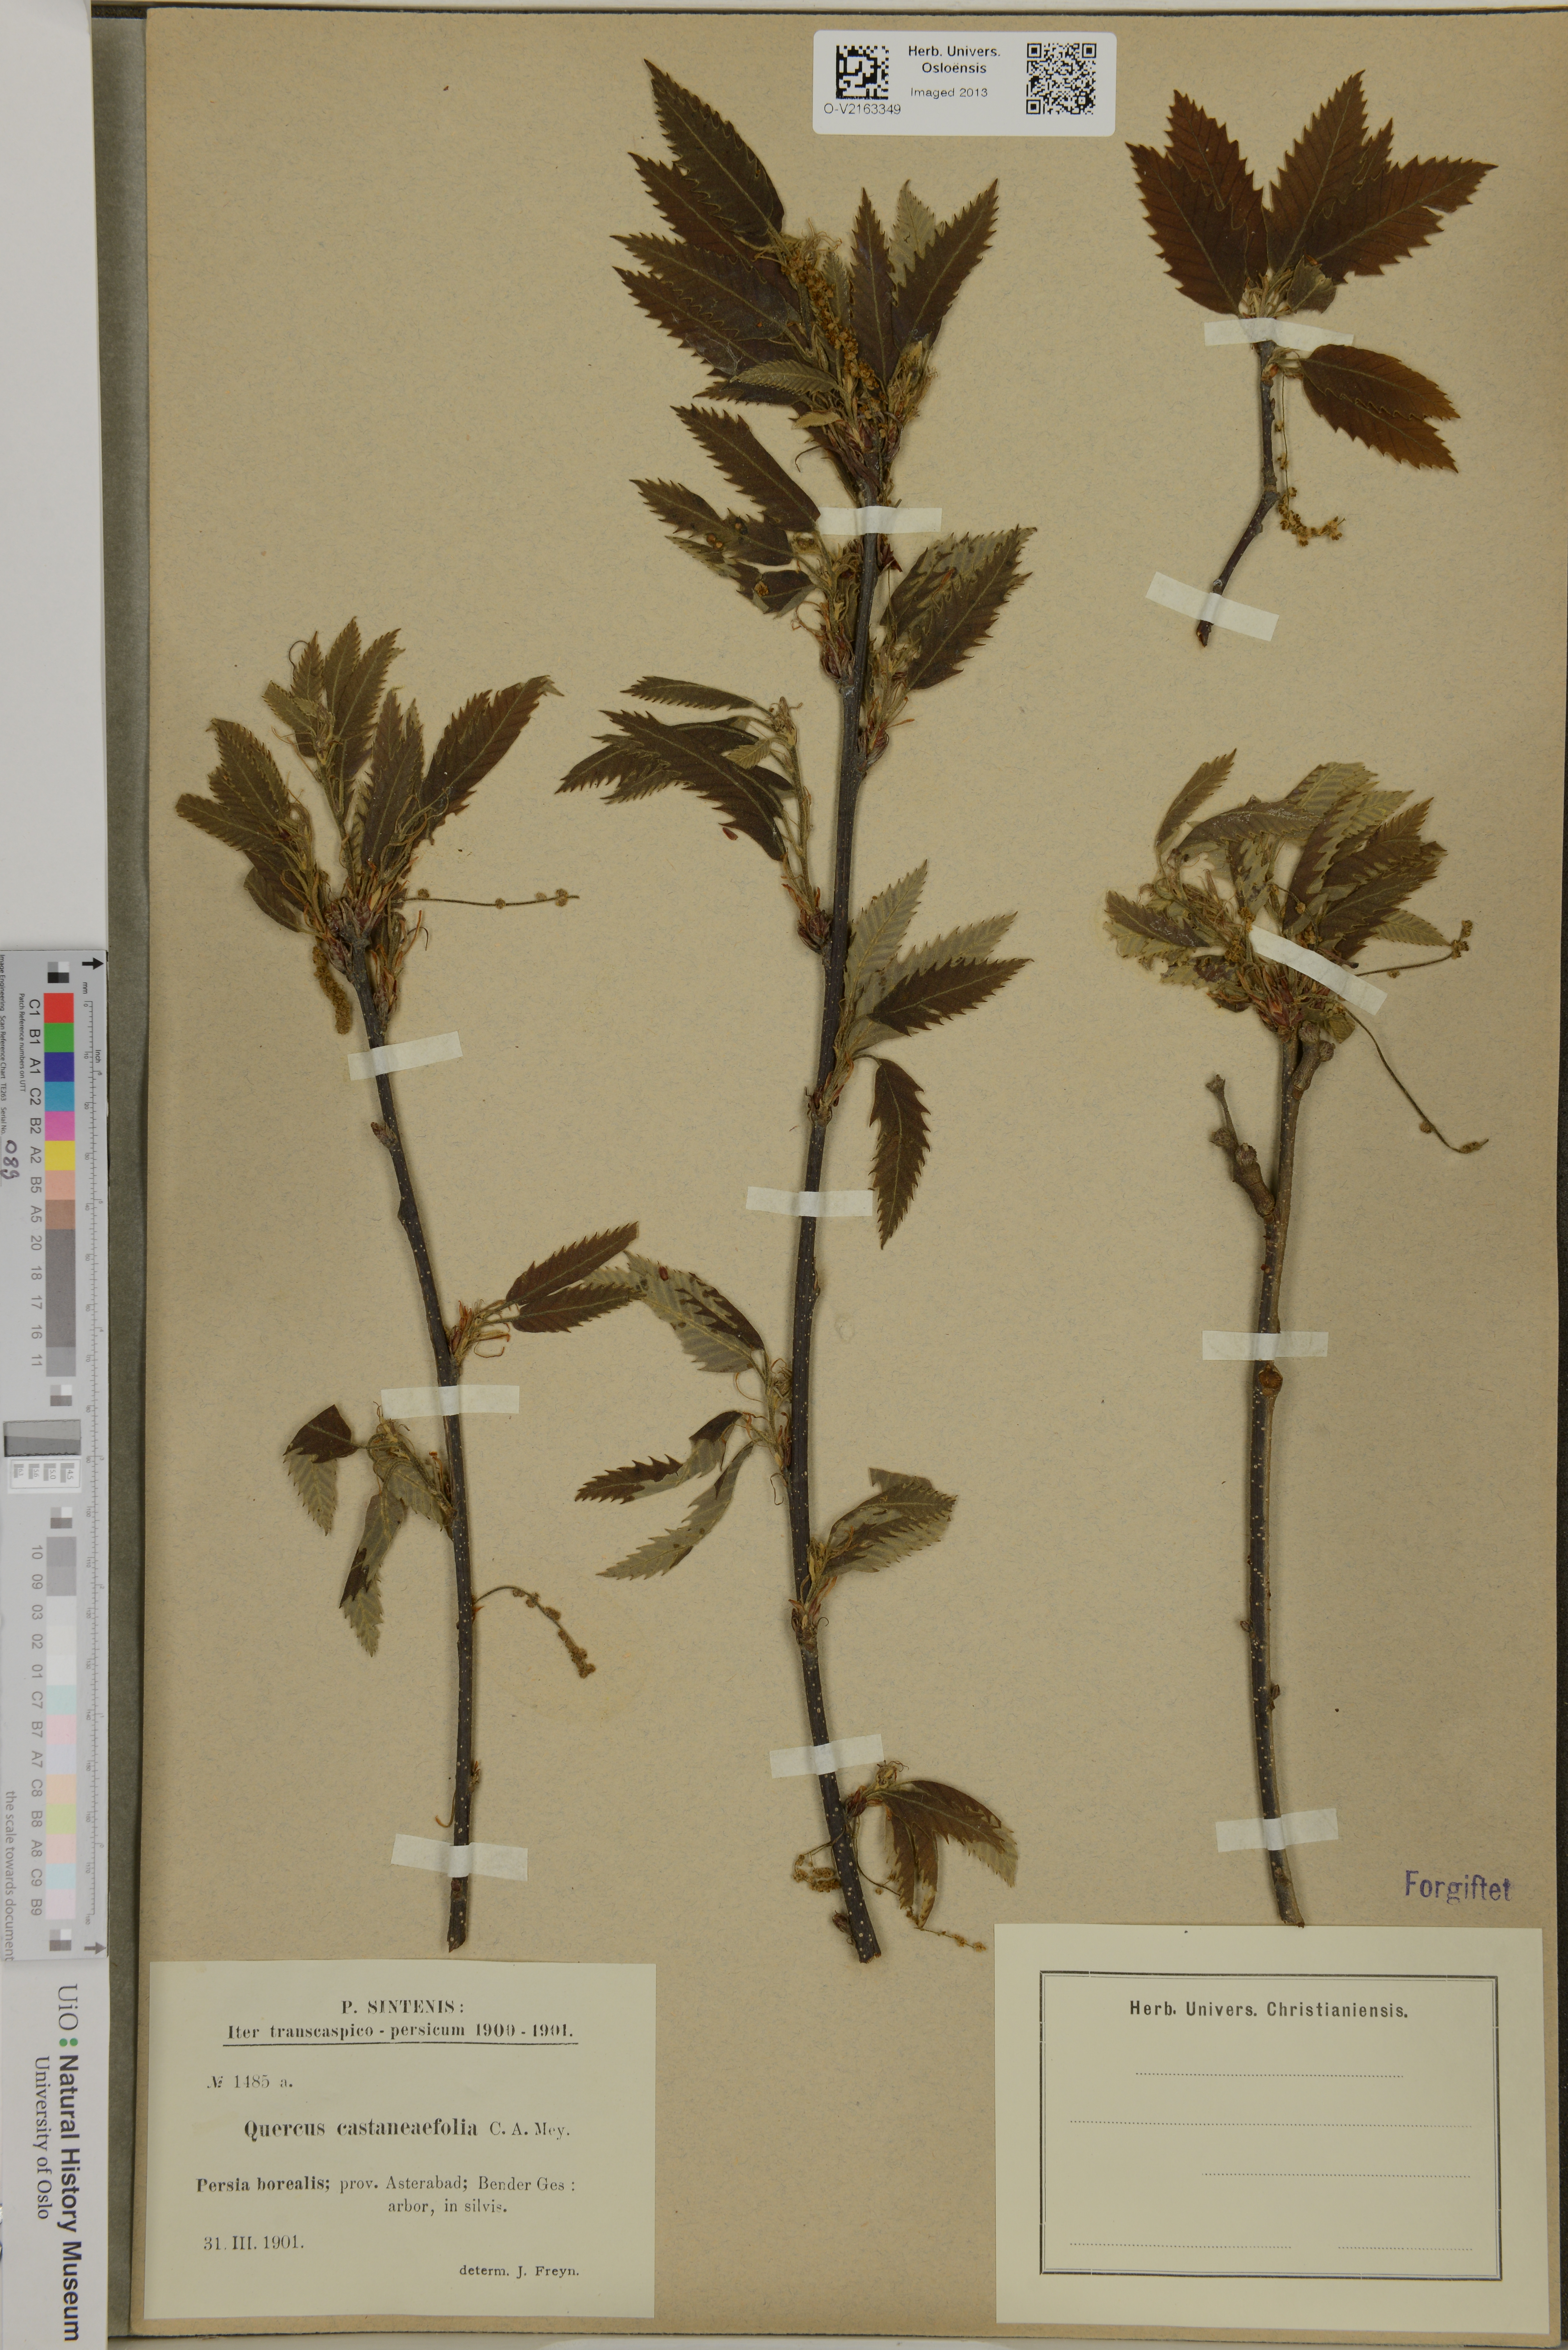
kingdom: Plantae
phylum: Tracheophyta
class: Magnoliopsida
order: Fagales
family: Fagaceae
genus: Quercus
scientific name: Quercus castaneifolia
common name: Chestnut-leaved oak
